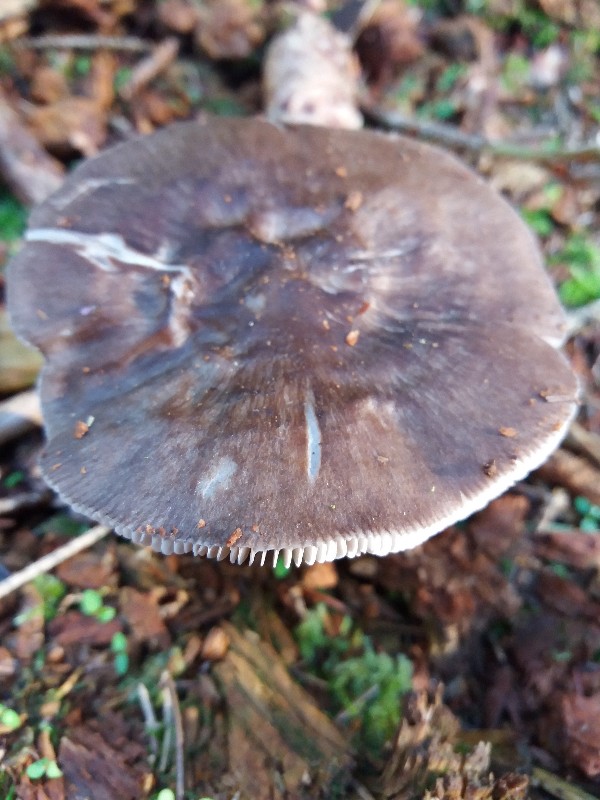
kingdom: Fungi
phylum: Basidiomycota
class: Agaricomycetes
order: Agaricales
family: Pluteaceae
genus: Pluteus
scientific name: Pluteus cervinus
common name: sodfarvet skærmhat
